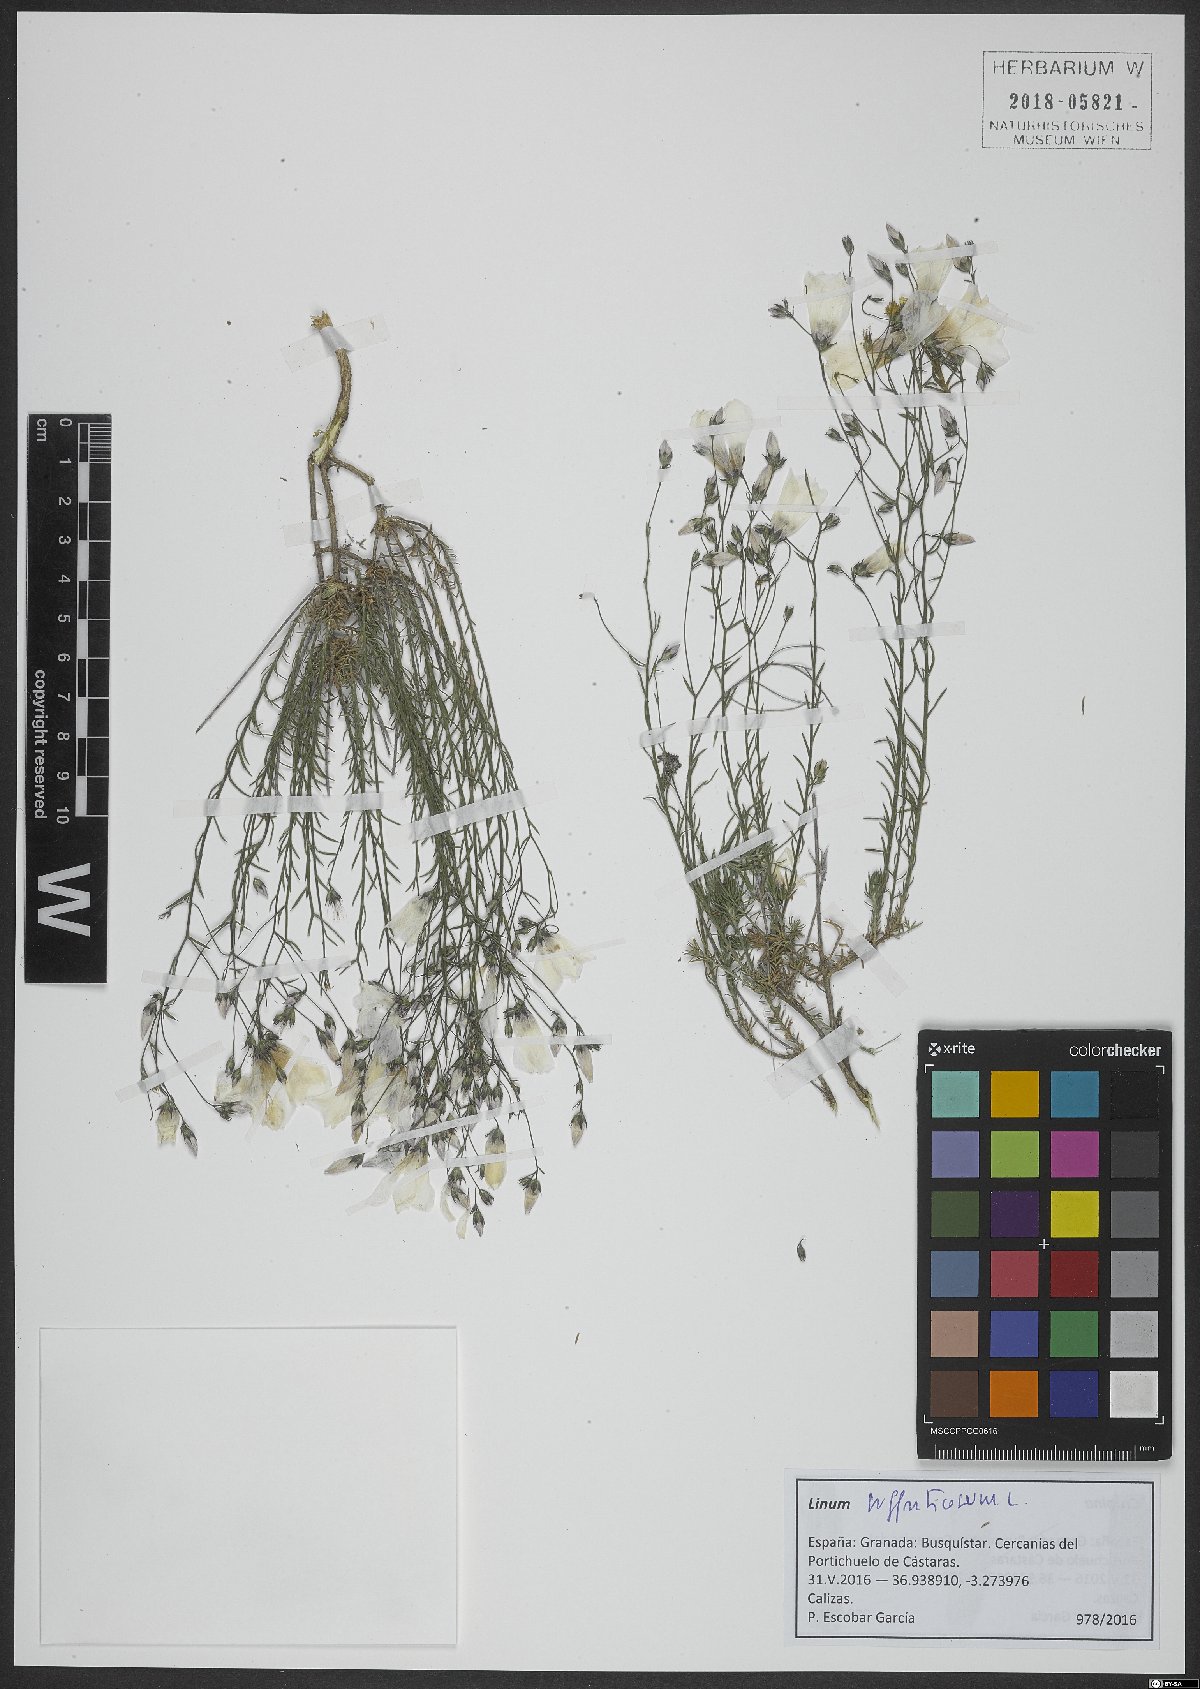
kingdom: Plantae
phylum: Tracheophyta
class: Magnoliopsida
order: Malpighiales
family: Linaceae
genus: Linum
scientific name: Linum suffruticosum
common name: White flax
